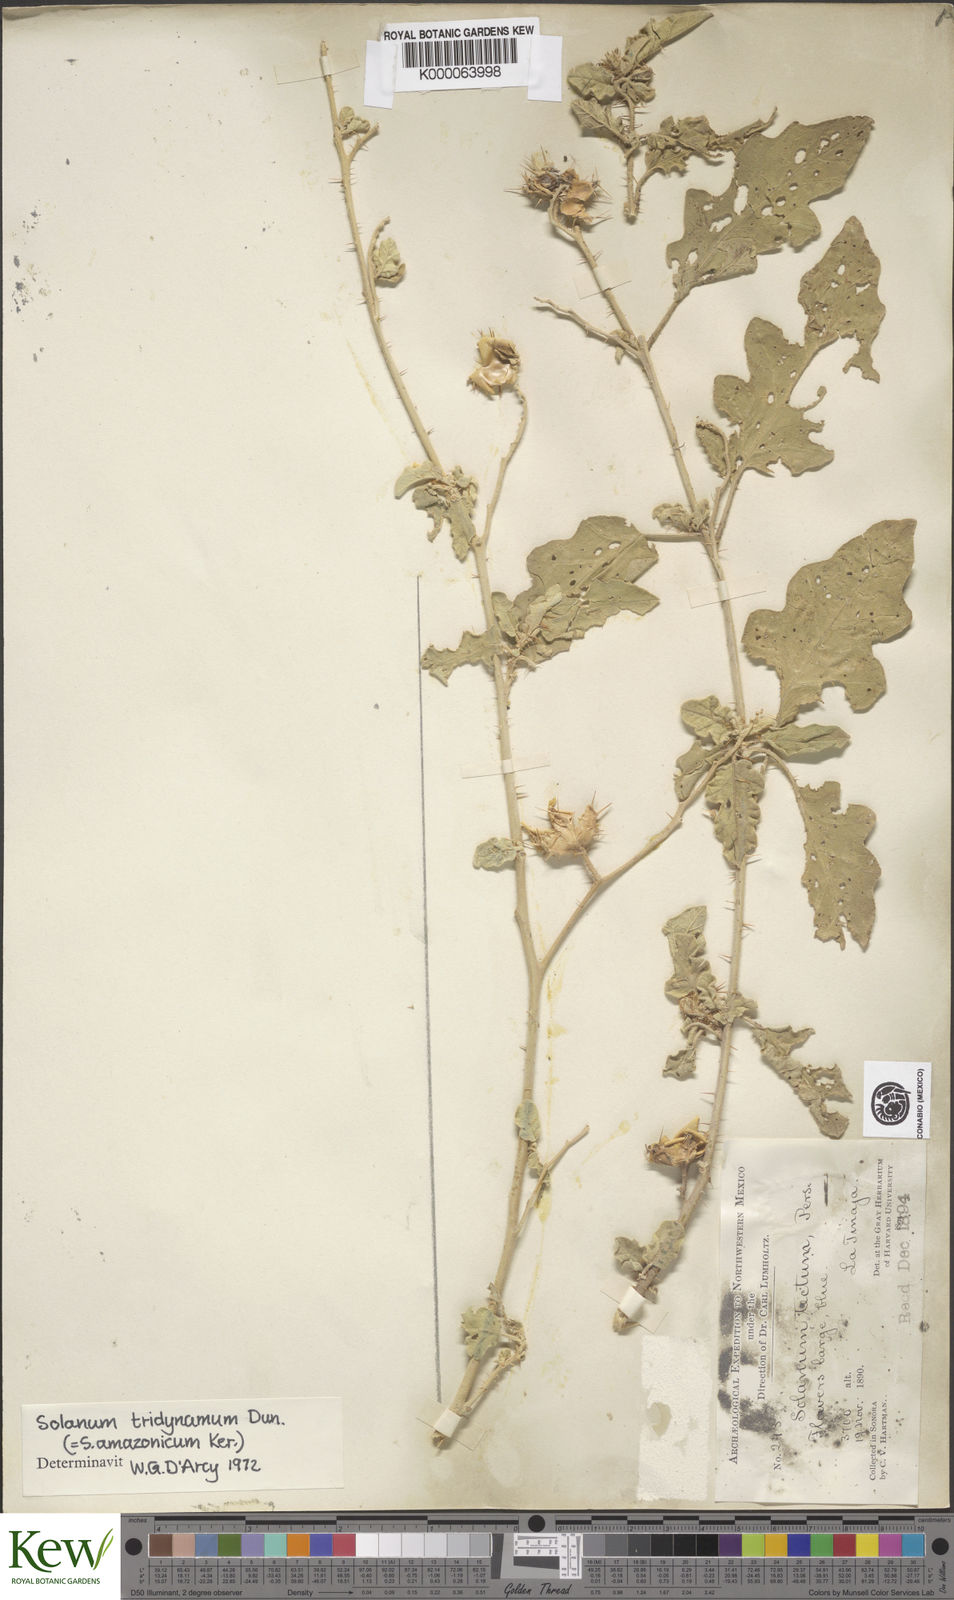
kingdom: Plantae
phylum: Tracheophyta
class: Magnoliopsida
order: Solanales
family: Solanaceae
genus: Solanum
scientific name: Solanum houstonii
